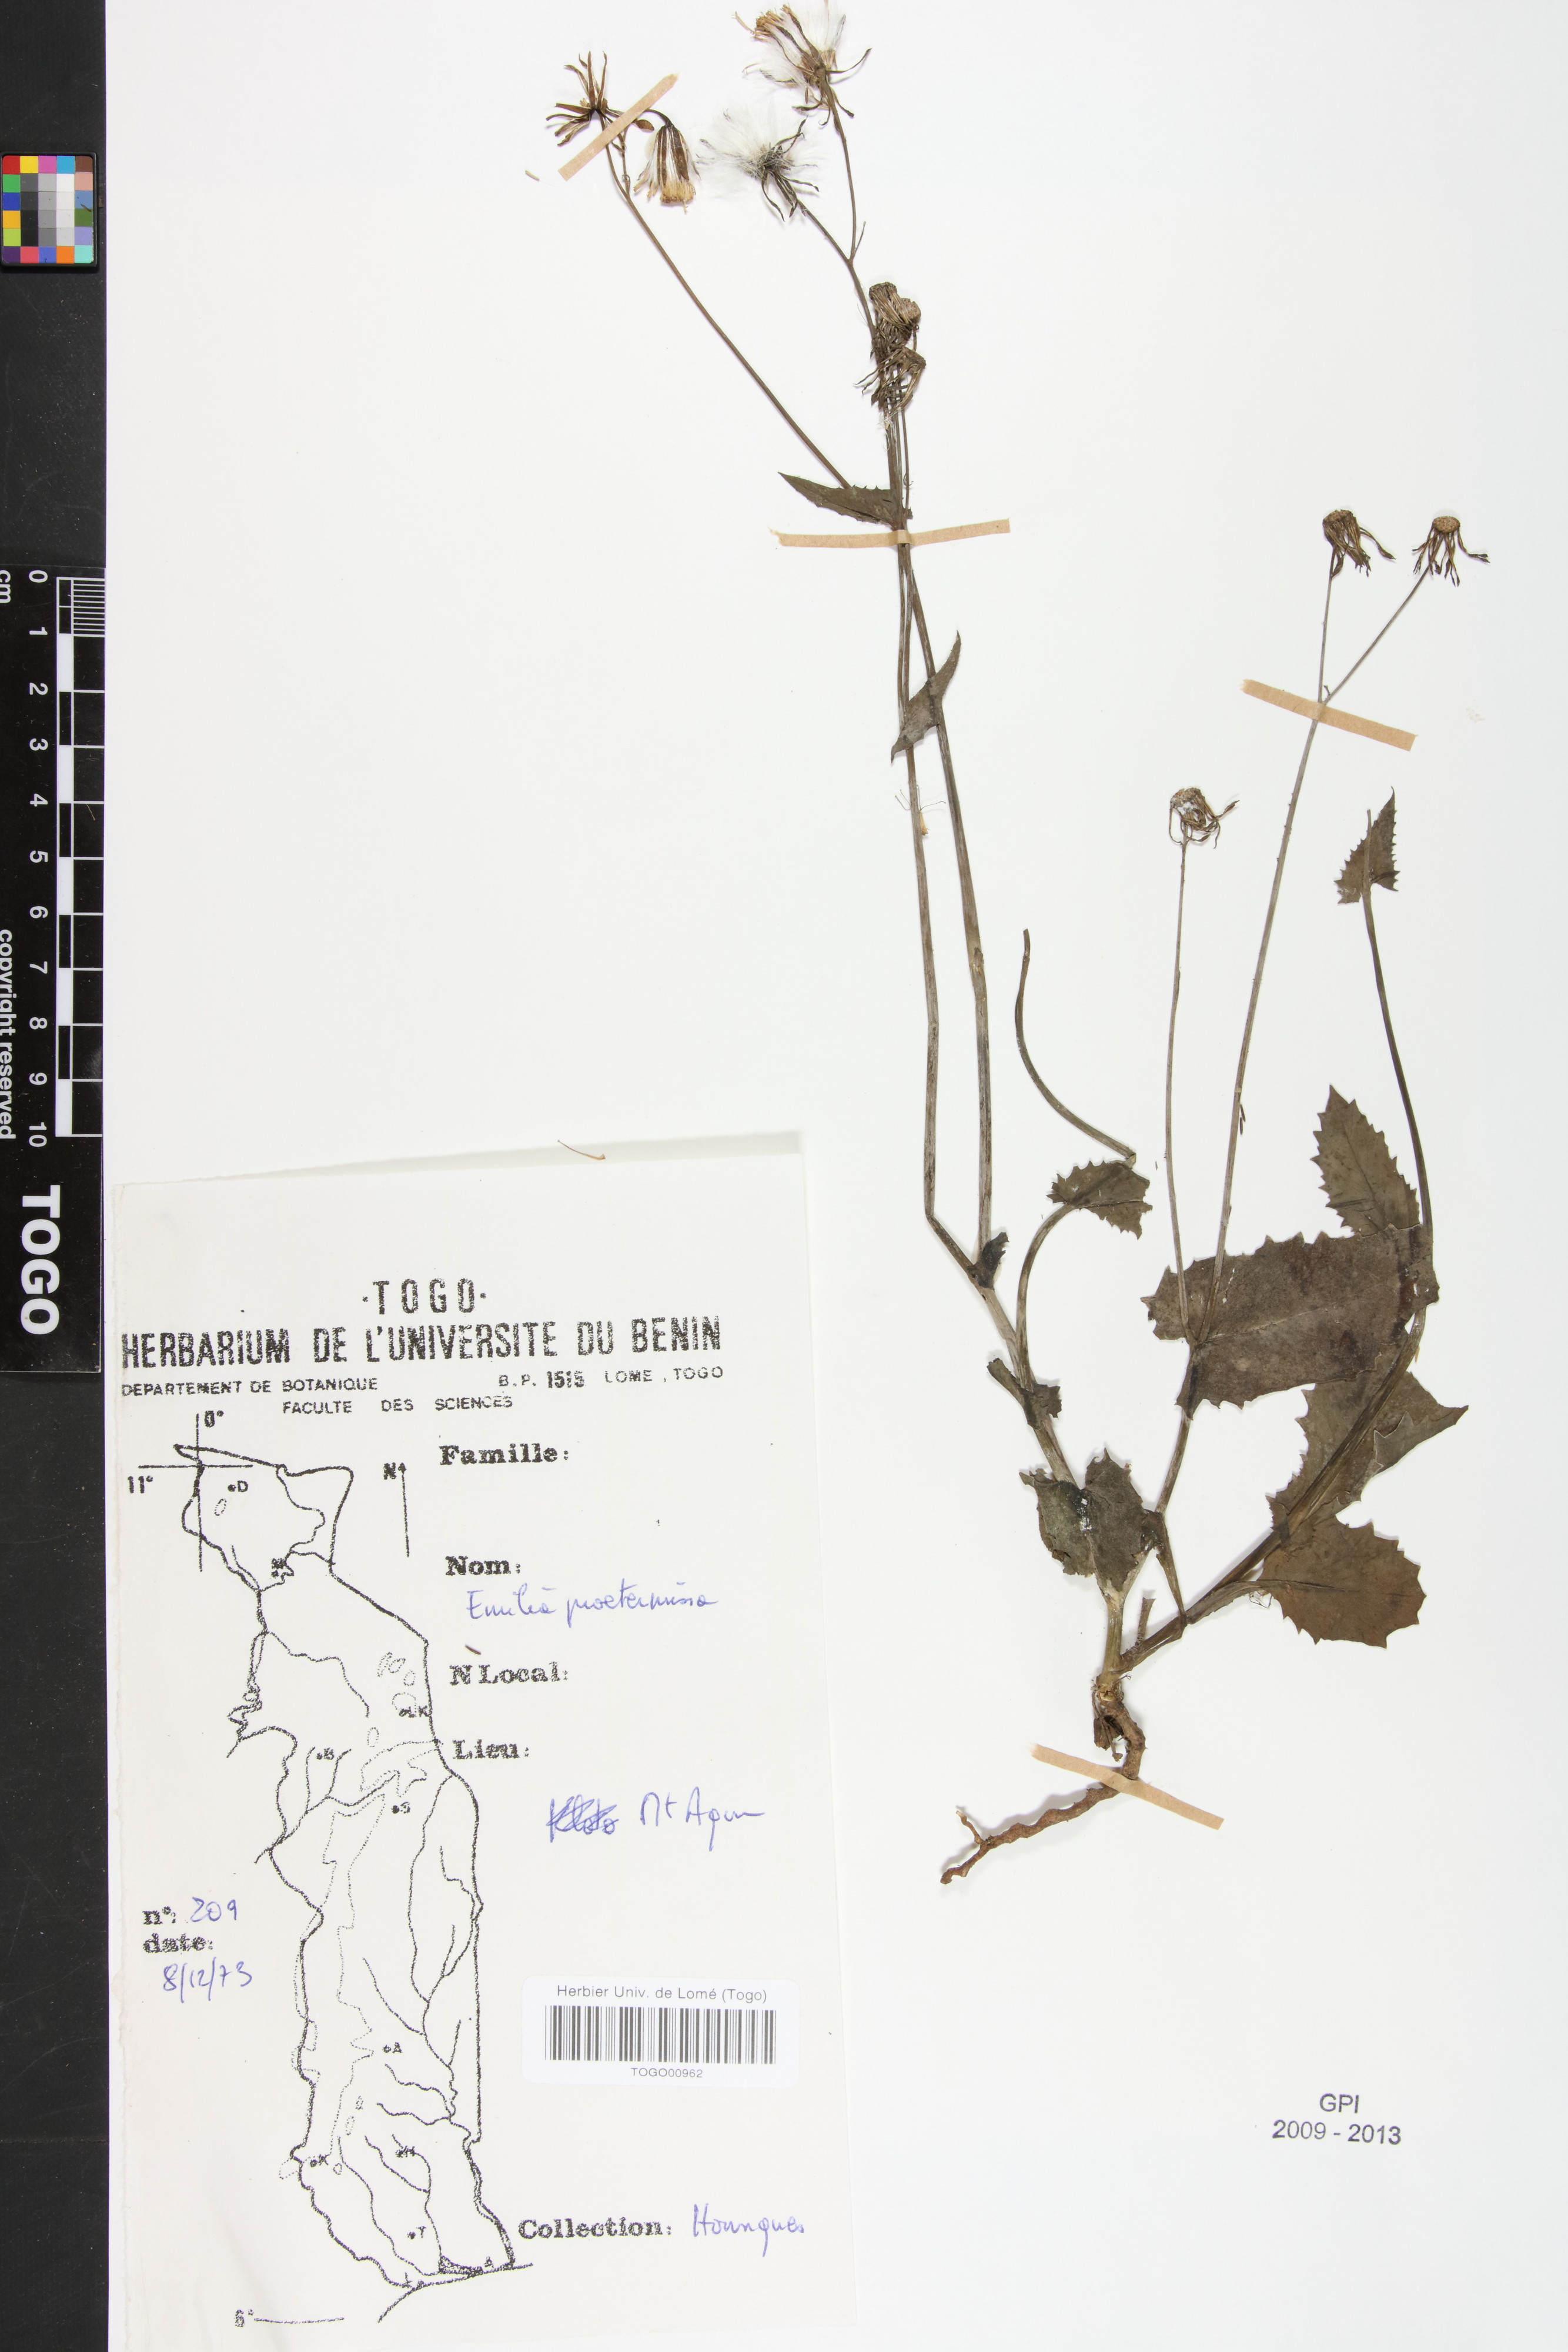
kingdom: Plantae
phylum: Tracheophyta
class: Magnoliopsida
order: Asterales
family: Asteraceae
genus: Emilia
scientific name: Emilia praetermissa
